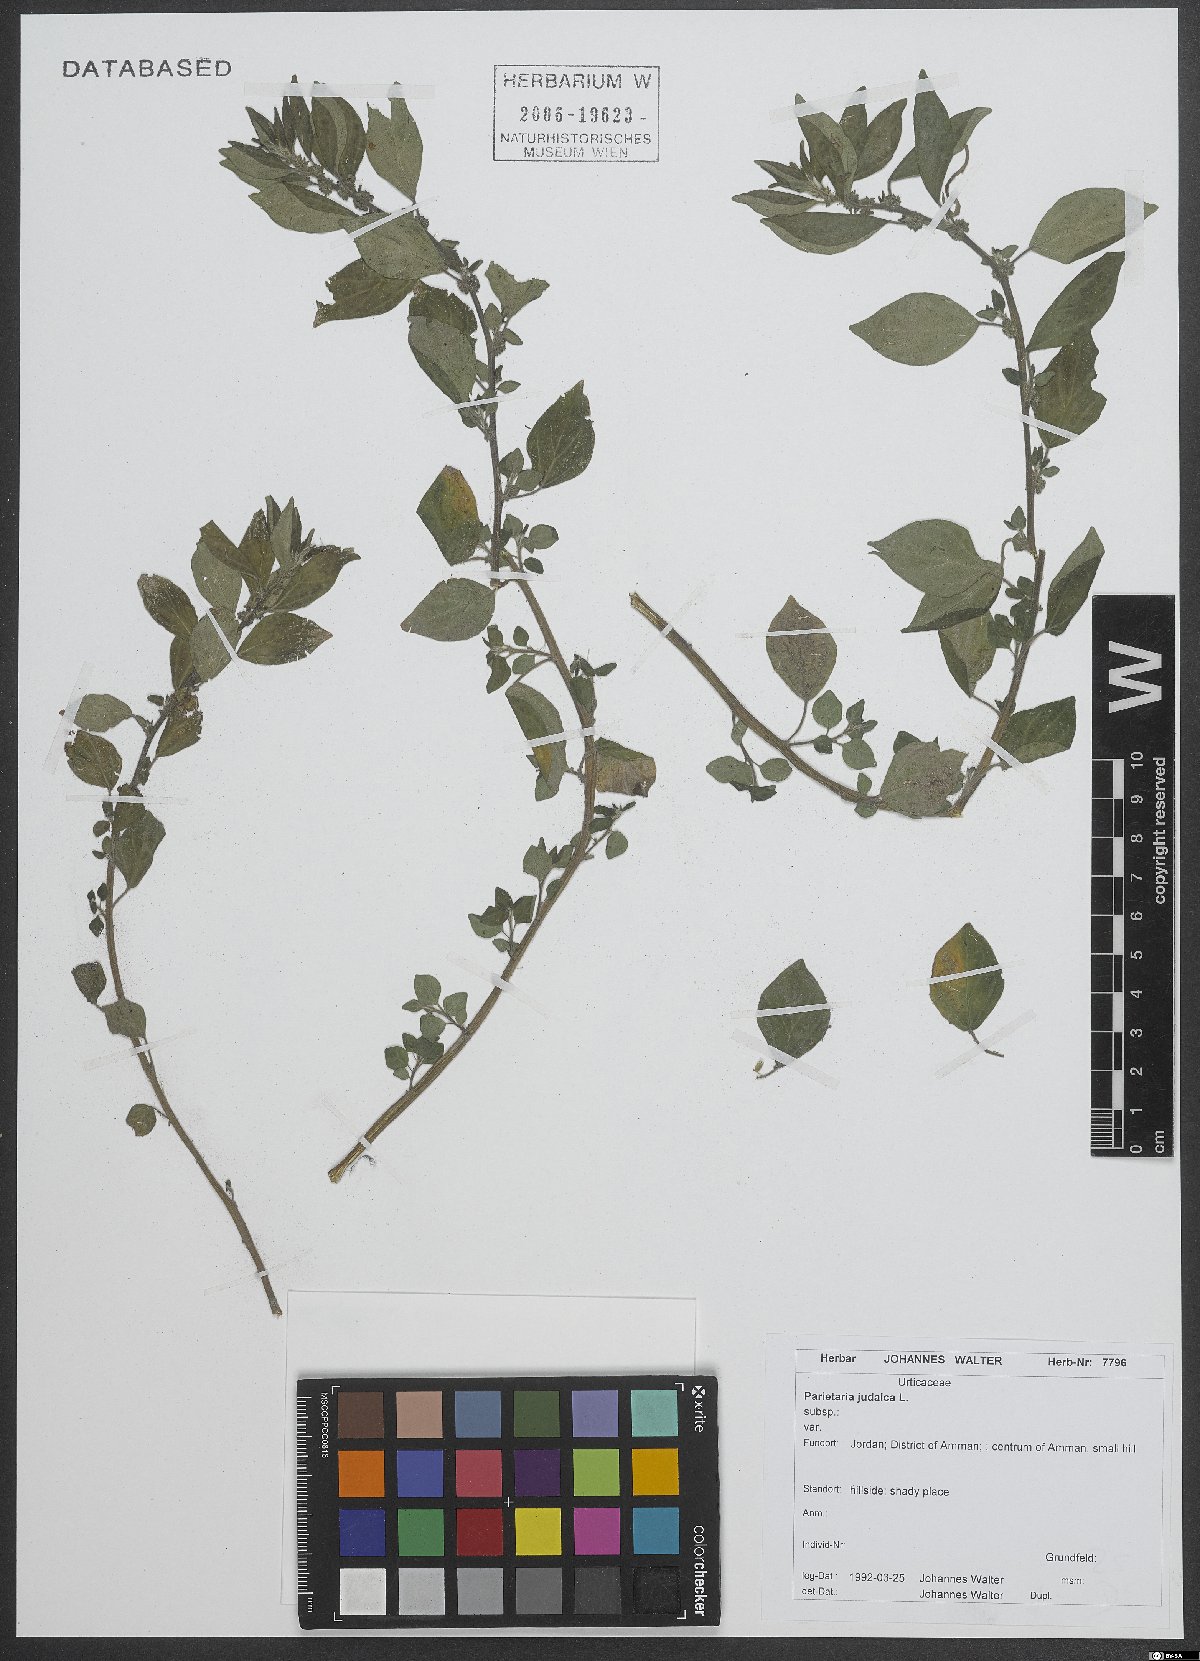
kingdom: Plantae
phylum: Tracheophyta
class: Magnoliopsida
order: Rosales
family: Urticaceae
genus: Parietaria
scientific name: Parietaria judaica
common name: Pellitory-of-the-wall
